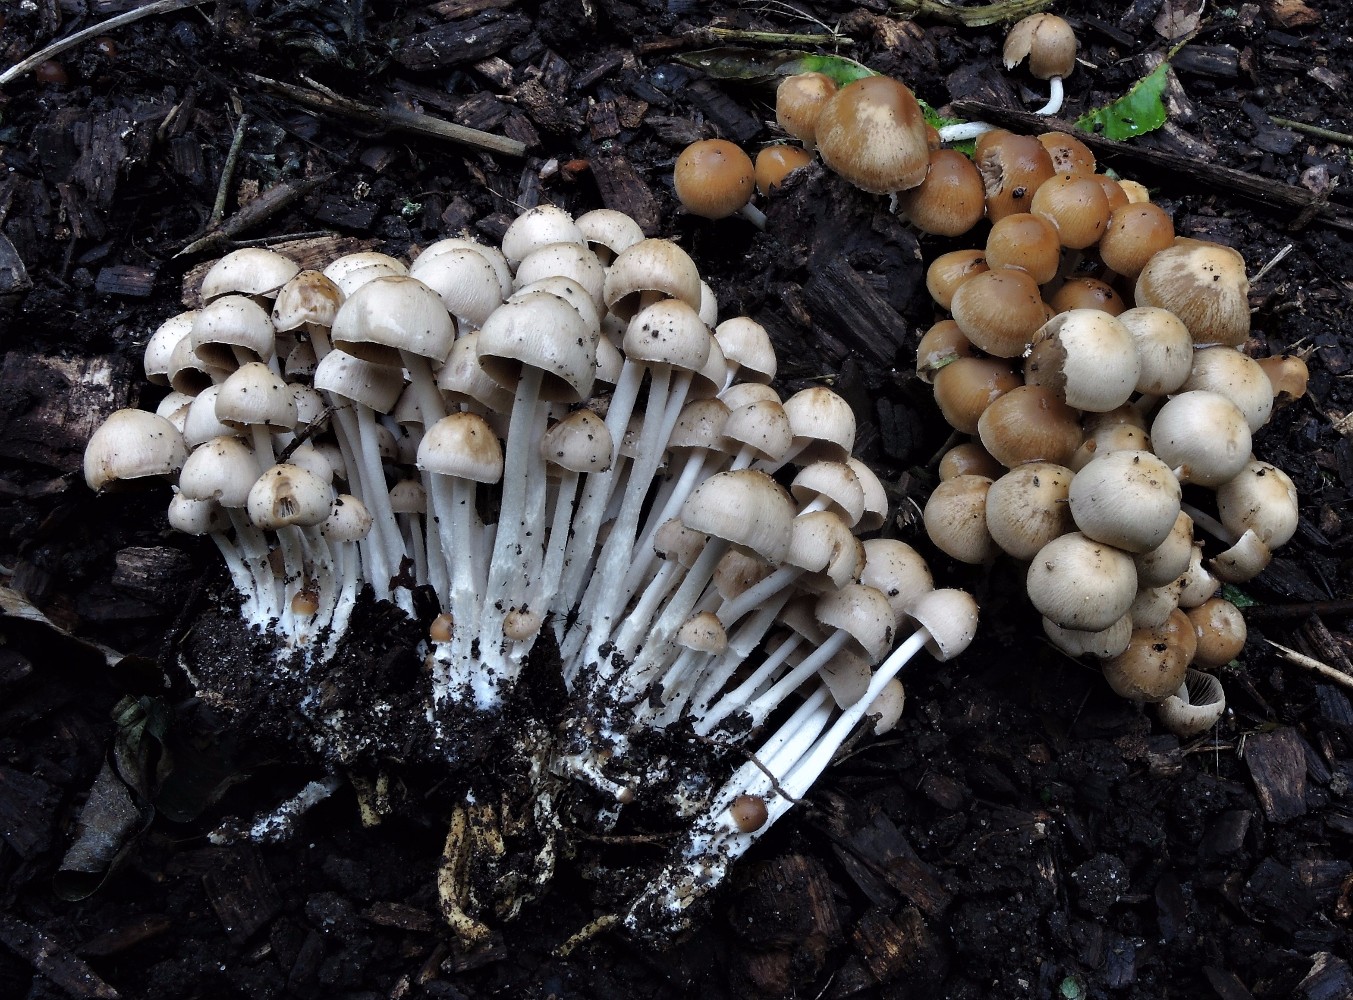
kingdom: Fungi
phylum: Basidiomycota
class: Agaricomycetes
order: Agaricales
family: Psathyrellaceae
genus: Britzelmayria
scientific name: Britzelmayria multipedata
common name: knippe-mørkhat
